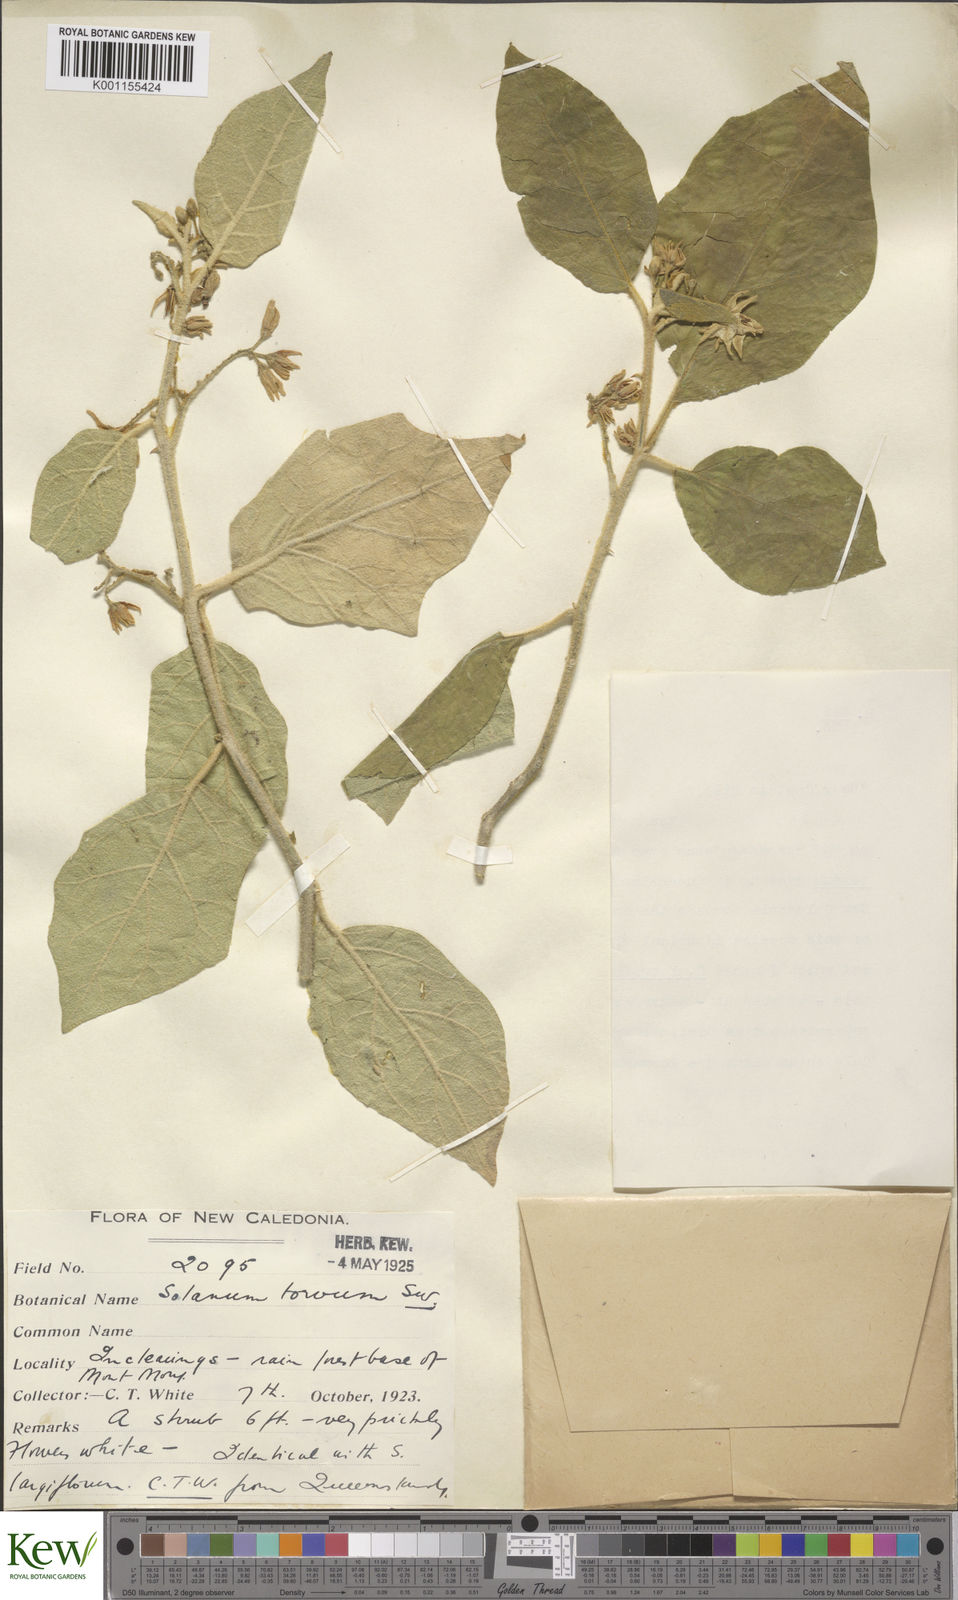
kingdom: Plantae
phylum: Tracheophyta
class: Magnoliopsida
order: Solanales
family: Solanaceae
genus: Solanum
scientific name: Solanum torvum
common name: Turkey berry
